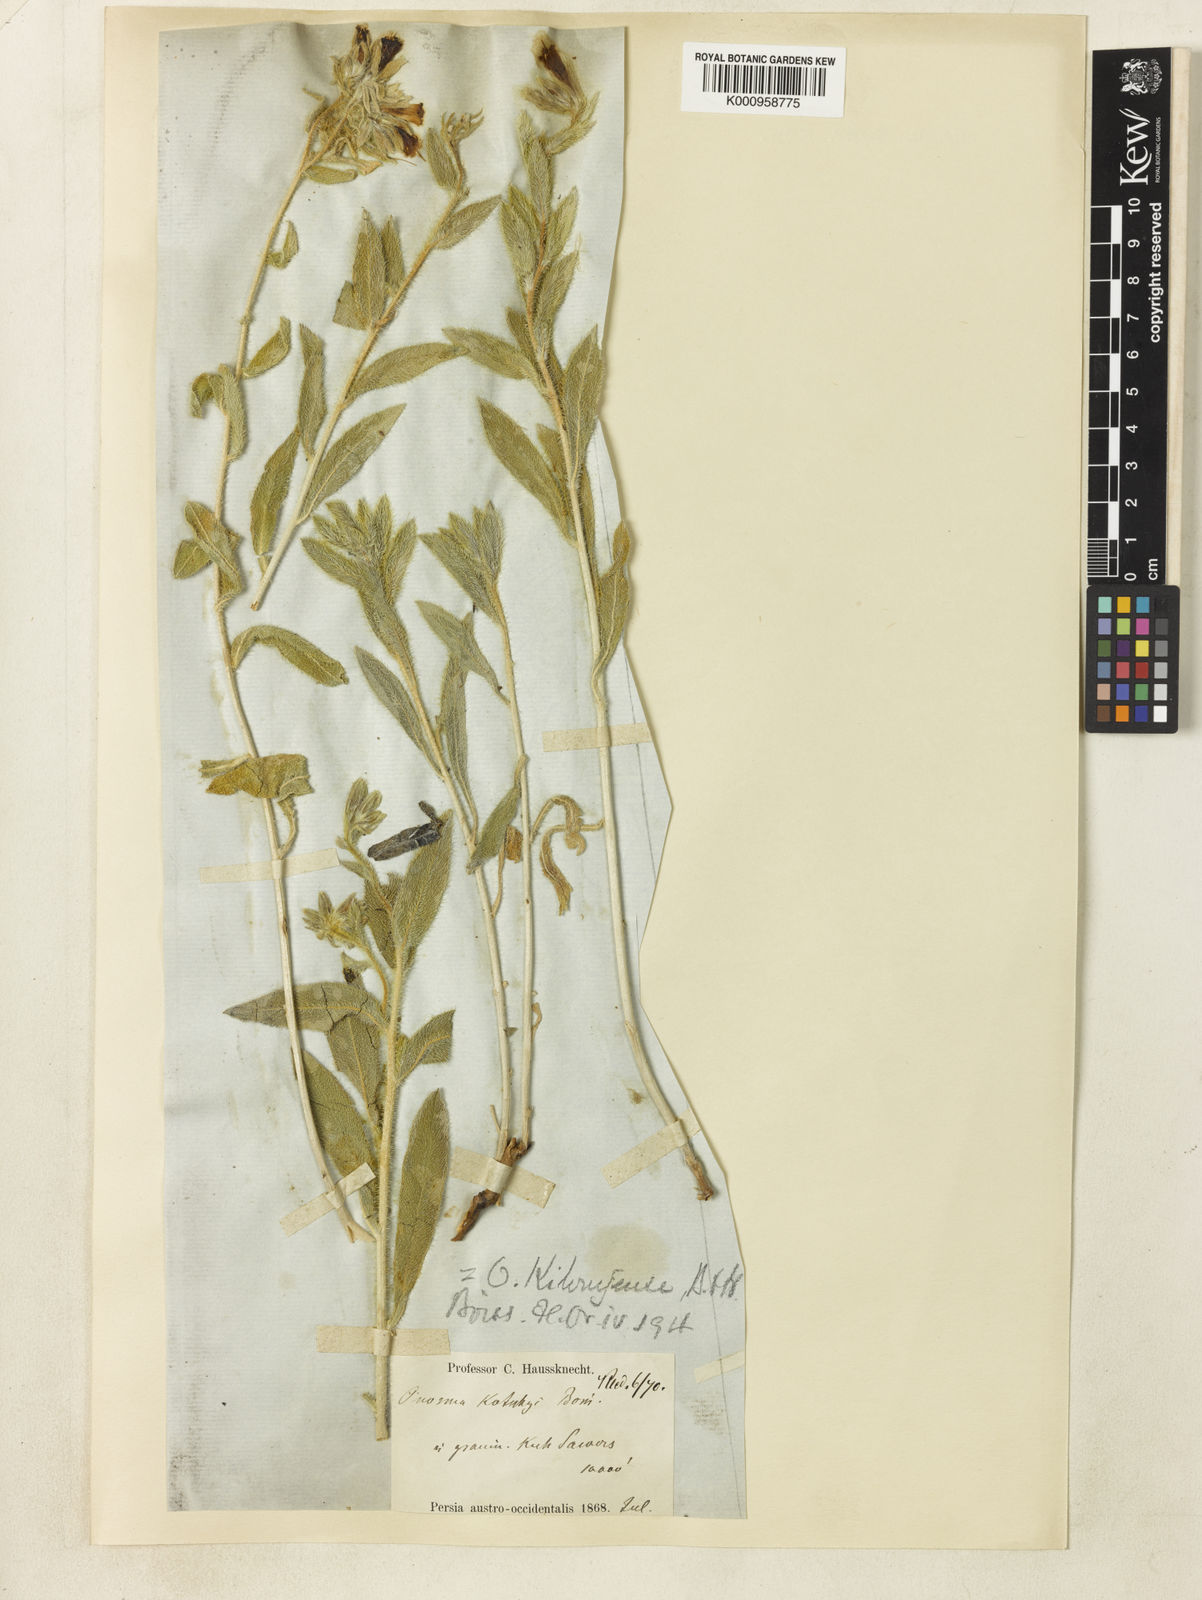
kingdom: Plantae
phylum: Tracheophyta
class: Magnoliopsida
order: Boraginales
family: Boraginaceae
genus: Onosma
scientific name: Onosma kilouyensis
